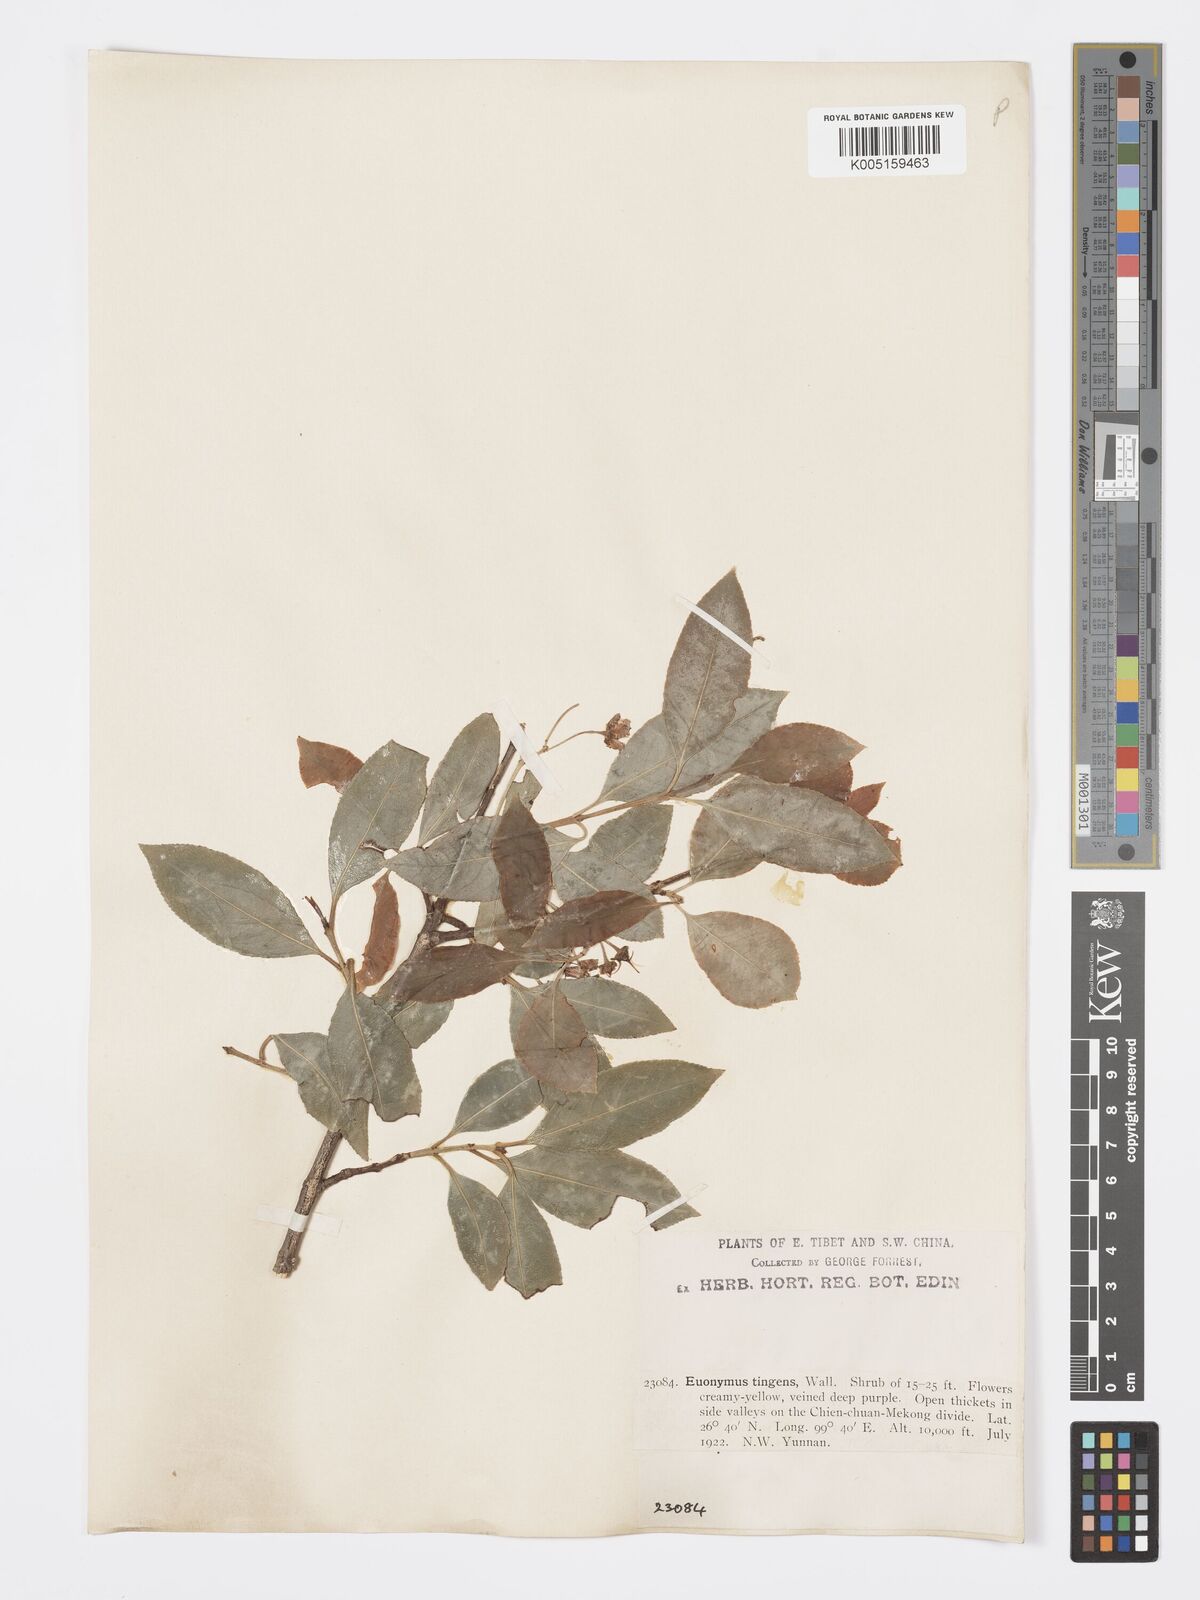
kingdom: Plantae
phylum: Tracheophyta
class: Magnoliopsida
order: Celastrales
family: Celastraceae
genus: Euonymus
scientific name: Euonymus tingens
